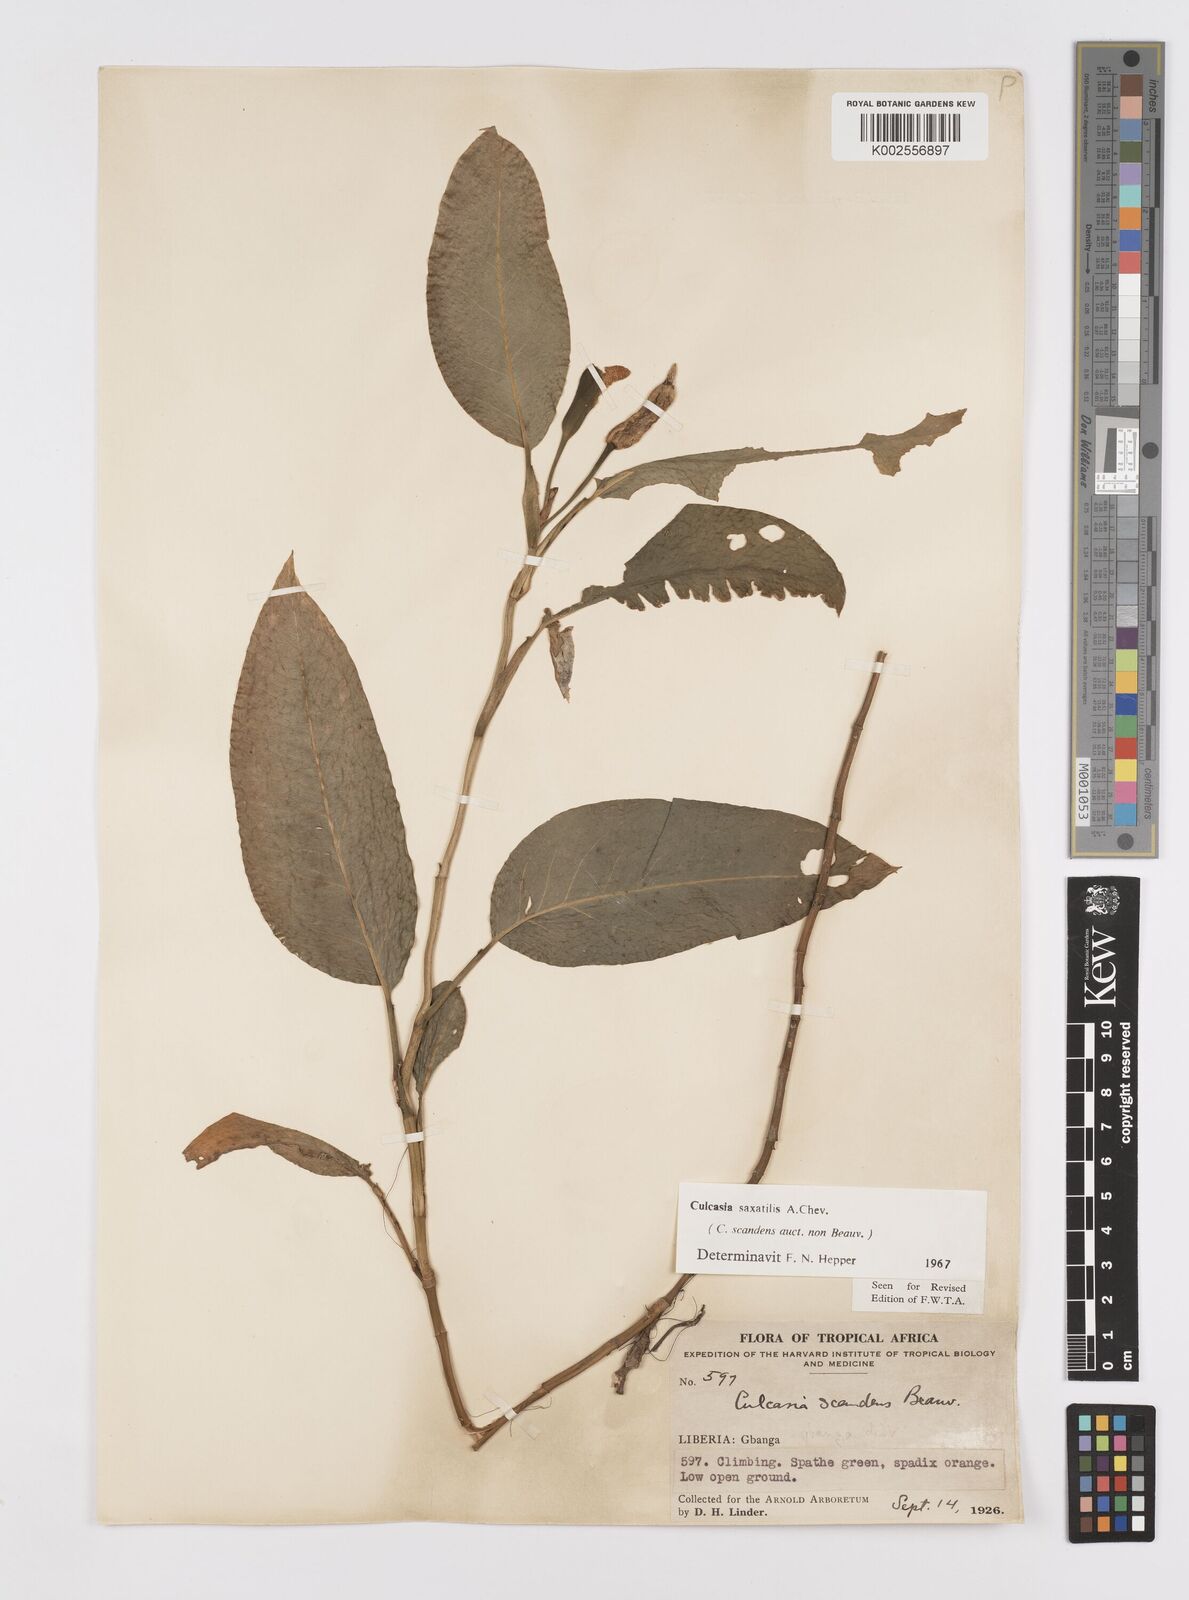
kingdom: Plantae
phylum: Tracheophyta
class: Liliopsida
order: Alismatales
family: Araceae
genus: Culcasia
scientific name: Culcasia scandens
